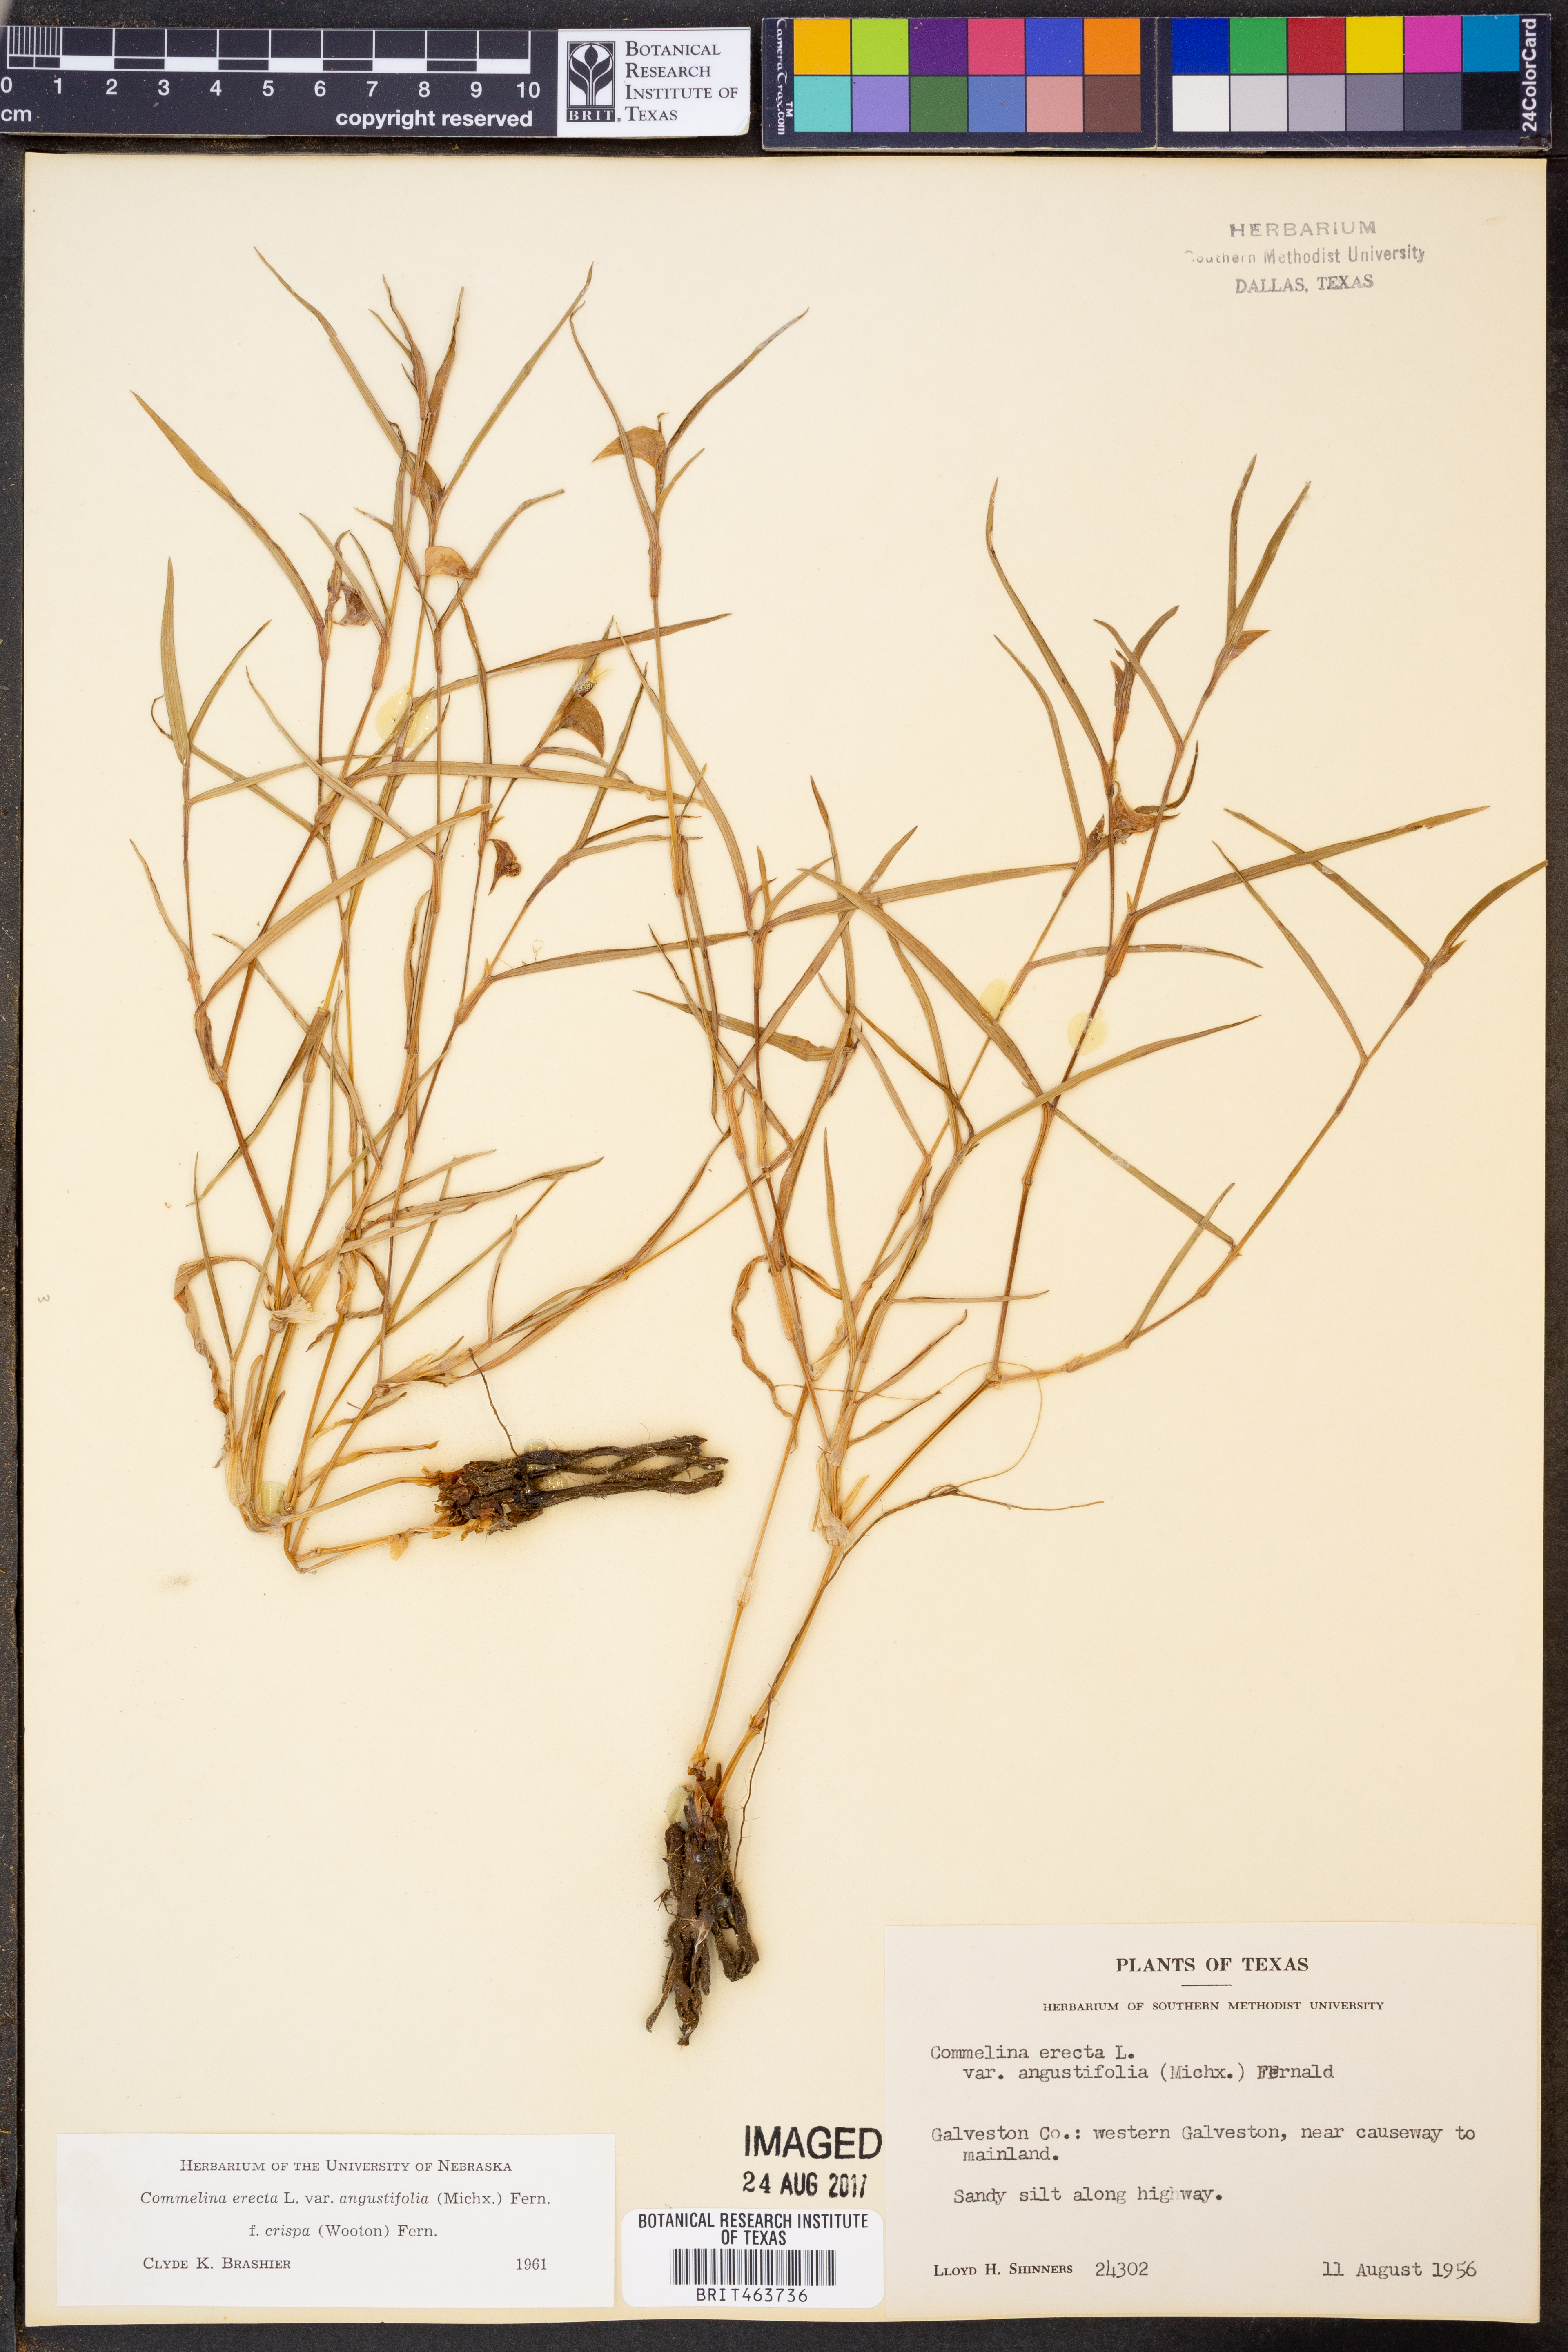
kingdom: Plantae
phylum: Tracheophyta
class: Liliopsida
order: Commelinales
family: Commelinaceae
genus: Commelina
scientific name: Commelina erecta
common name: Blousel blommetjie
